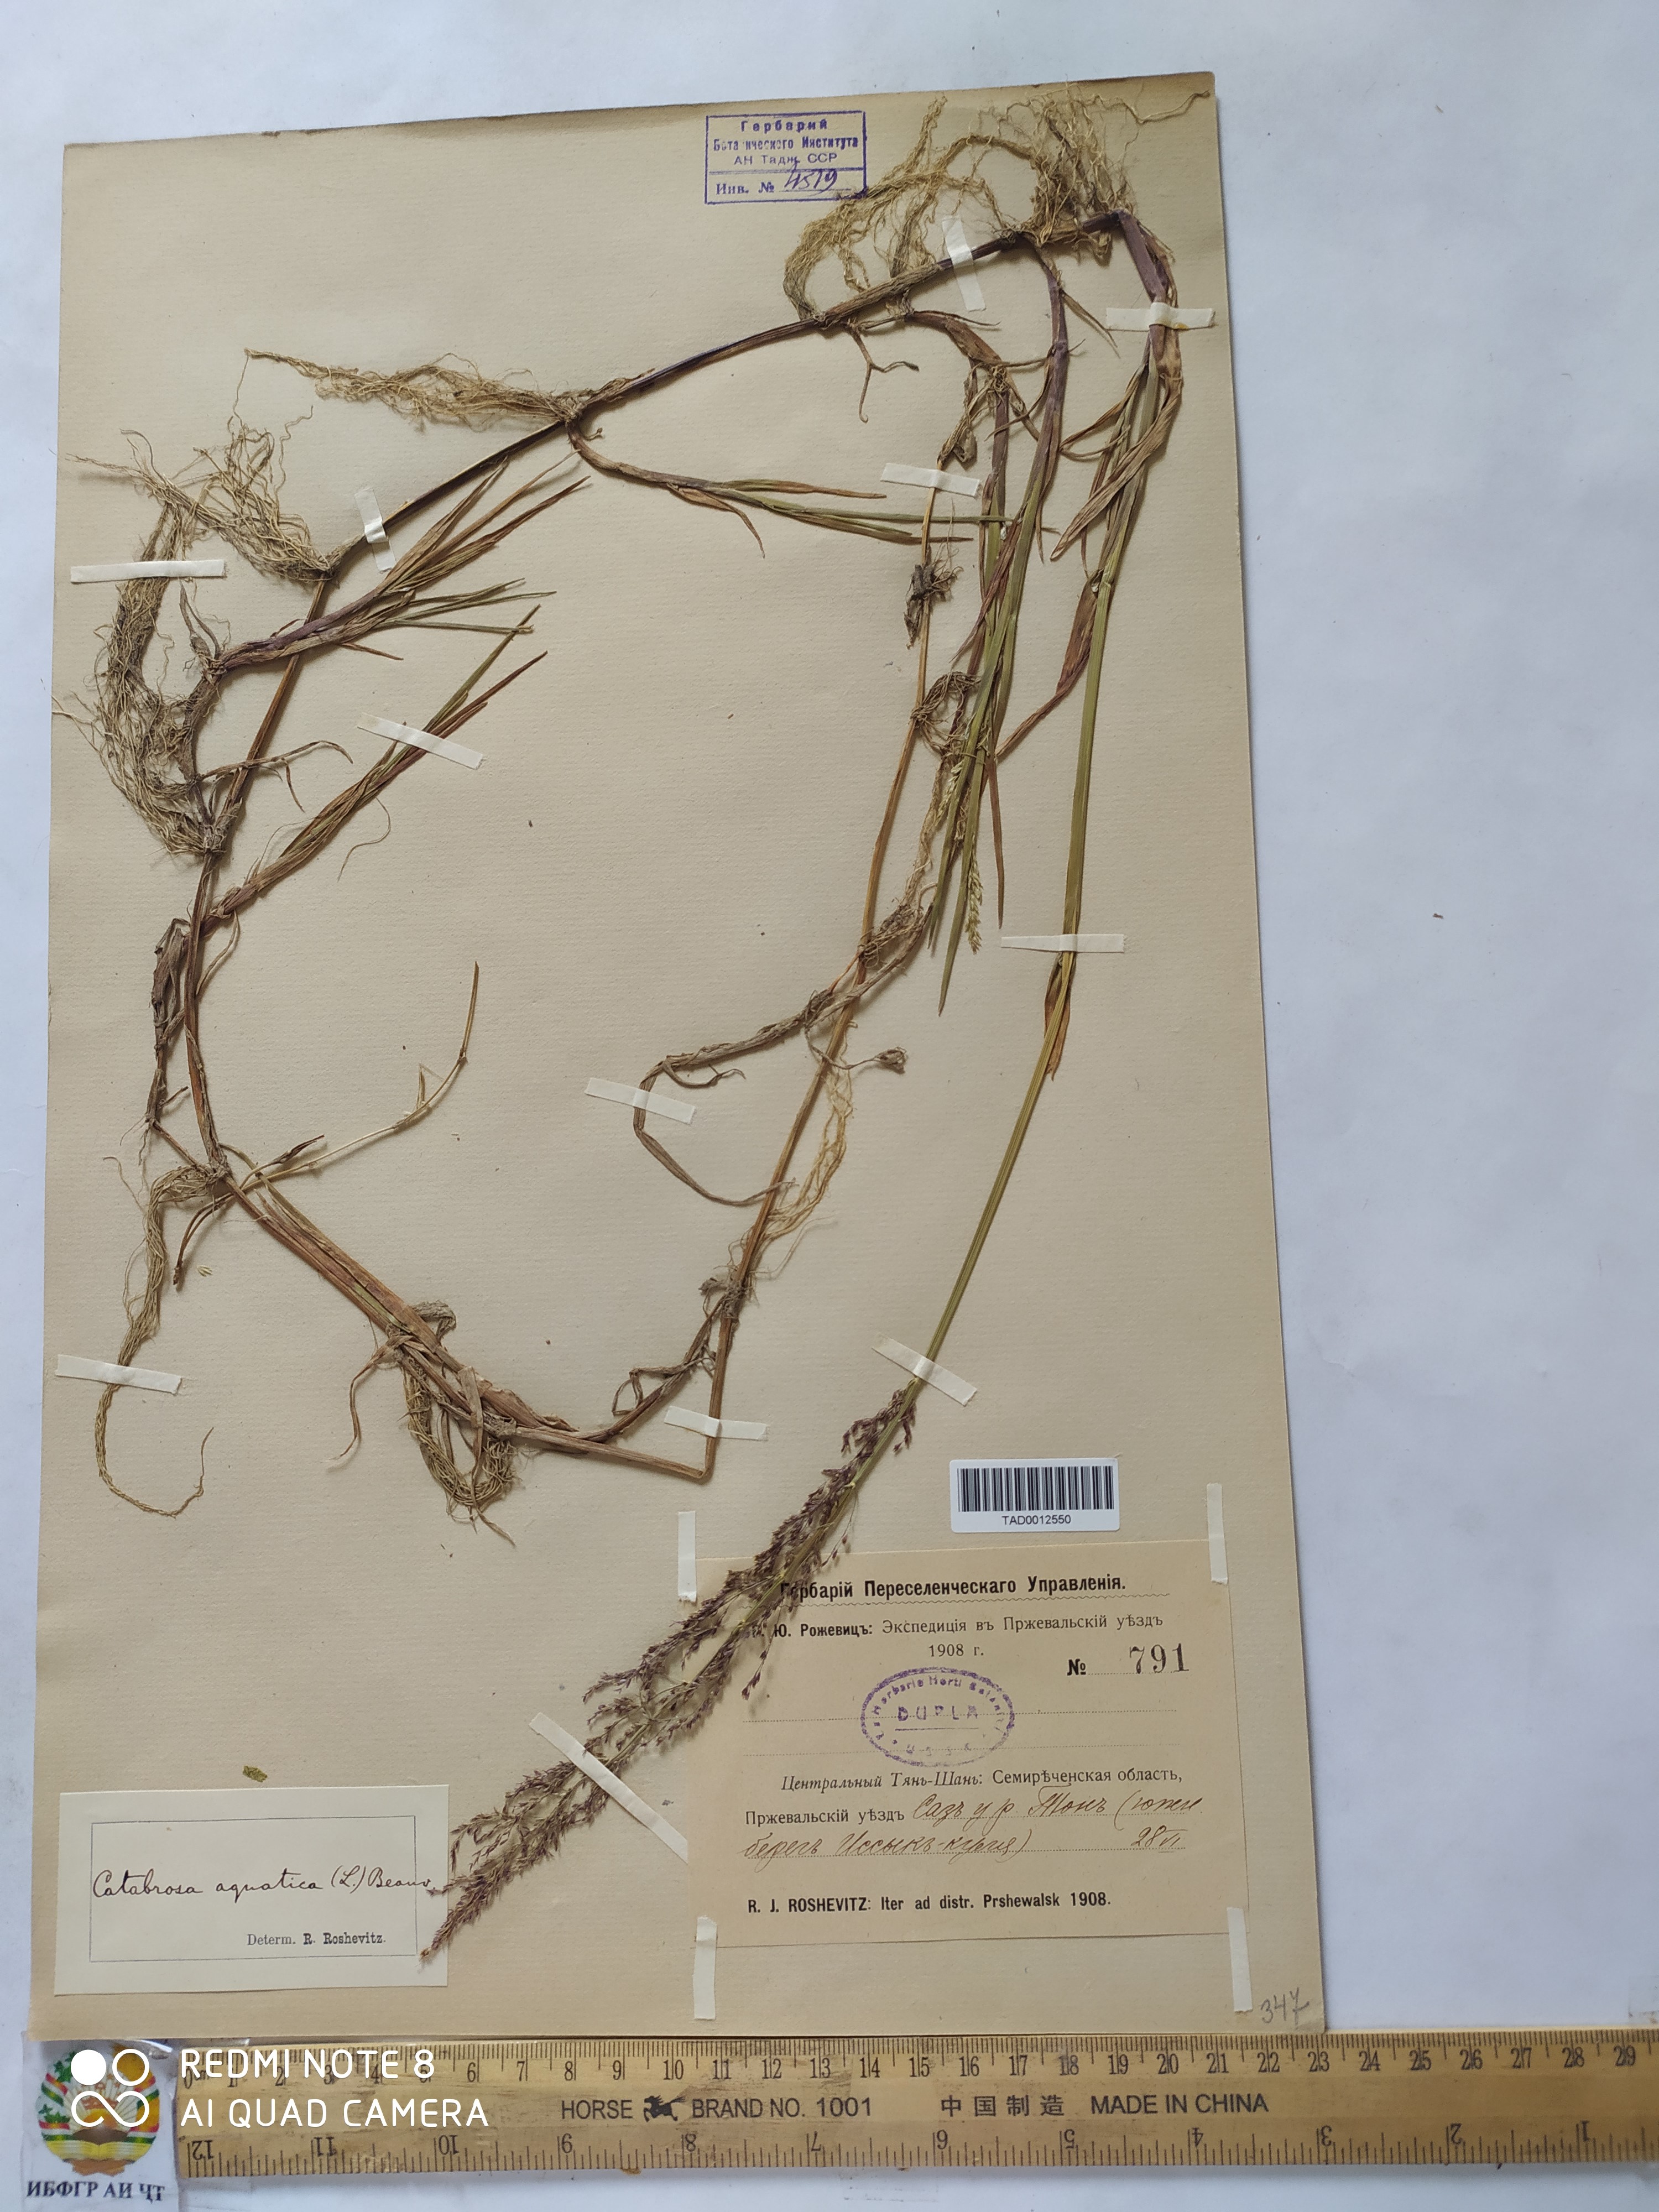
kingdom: Plantae
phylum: Tracheophyta
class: Liliopsida
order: Poales
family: Poaceae
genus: Catabrosa
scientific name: Catabrosa aquatica
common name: Whorl-grass
